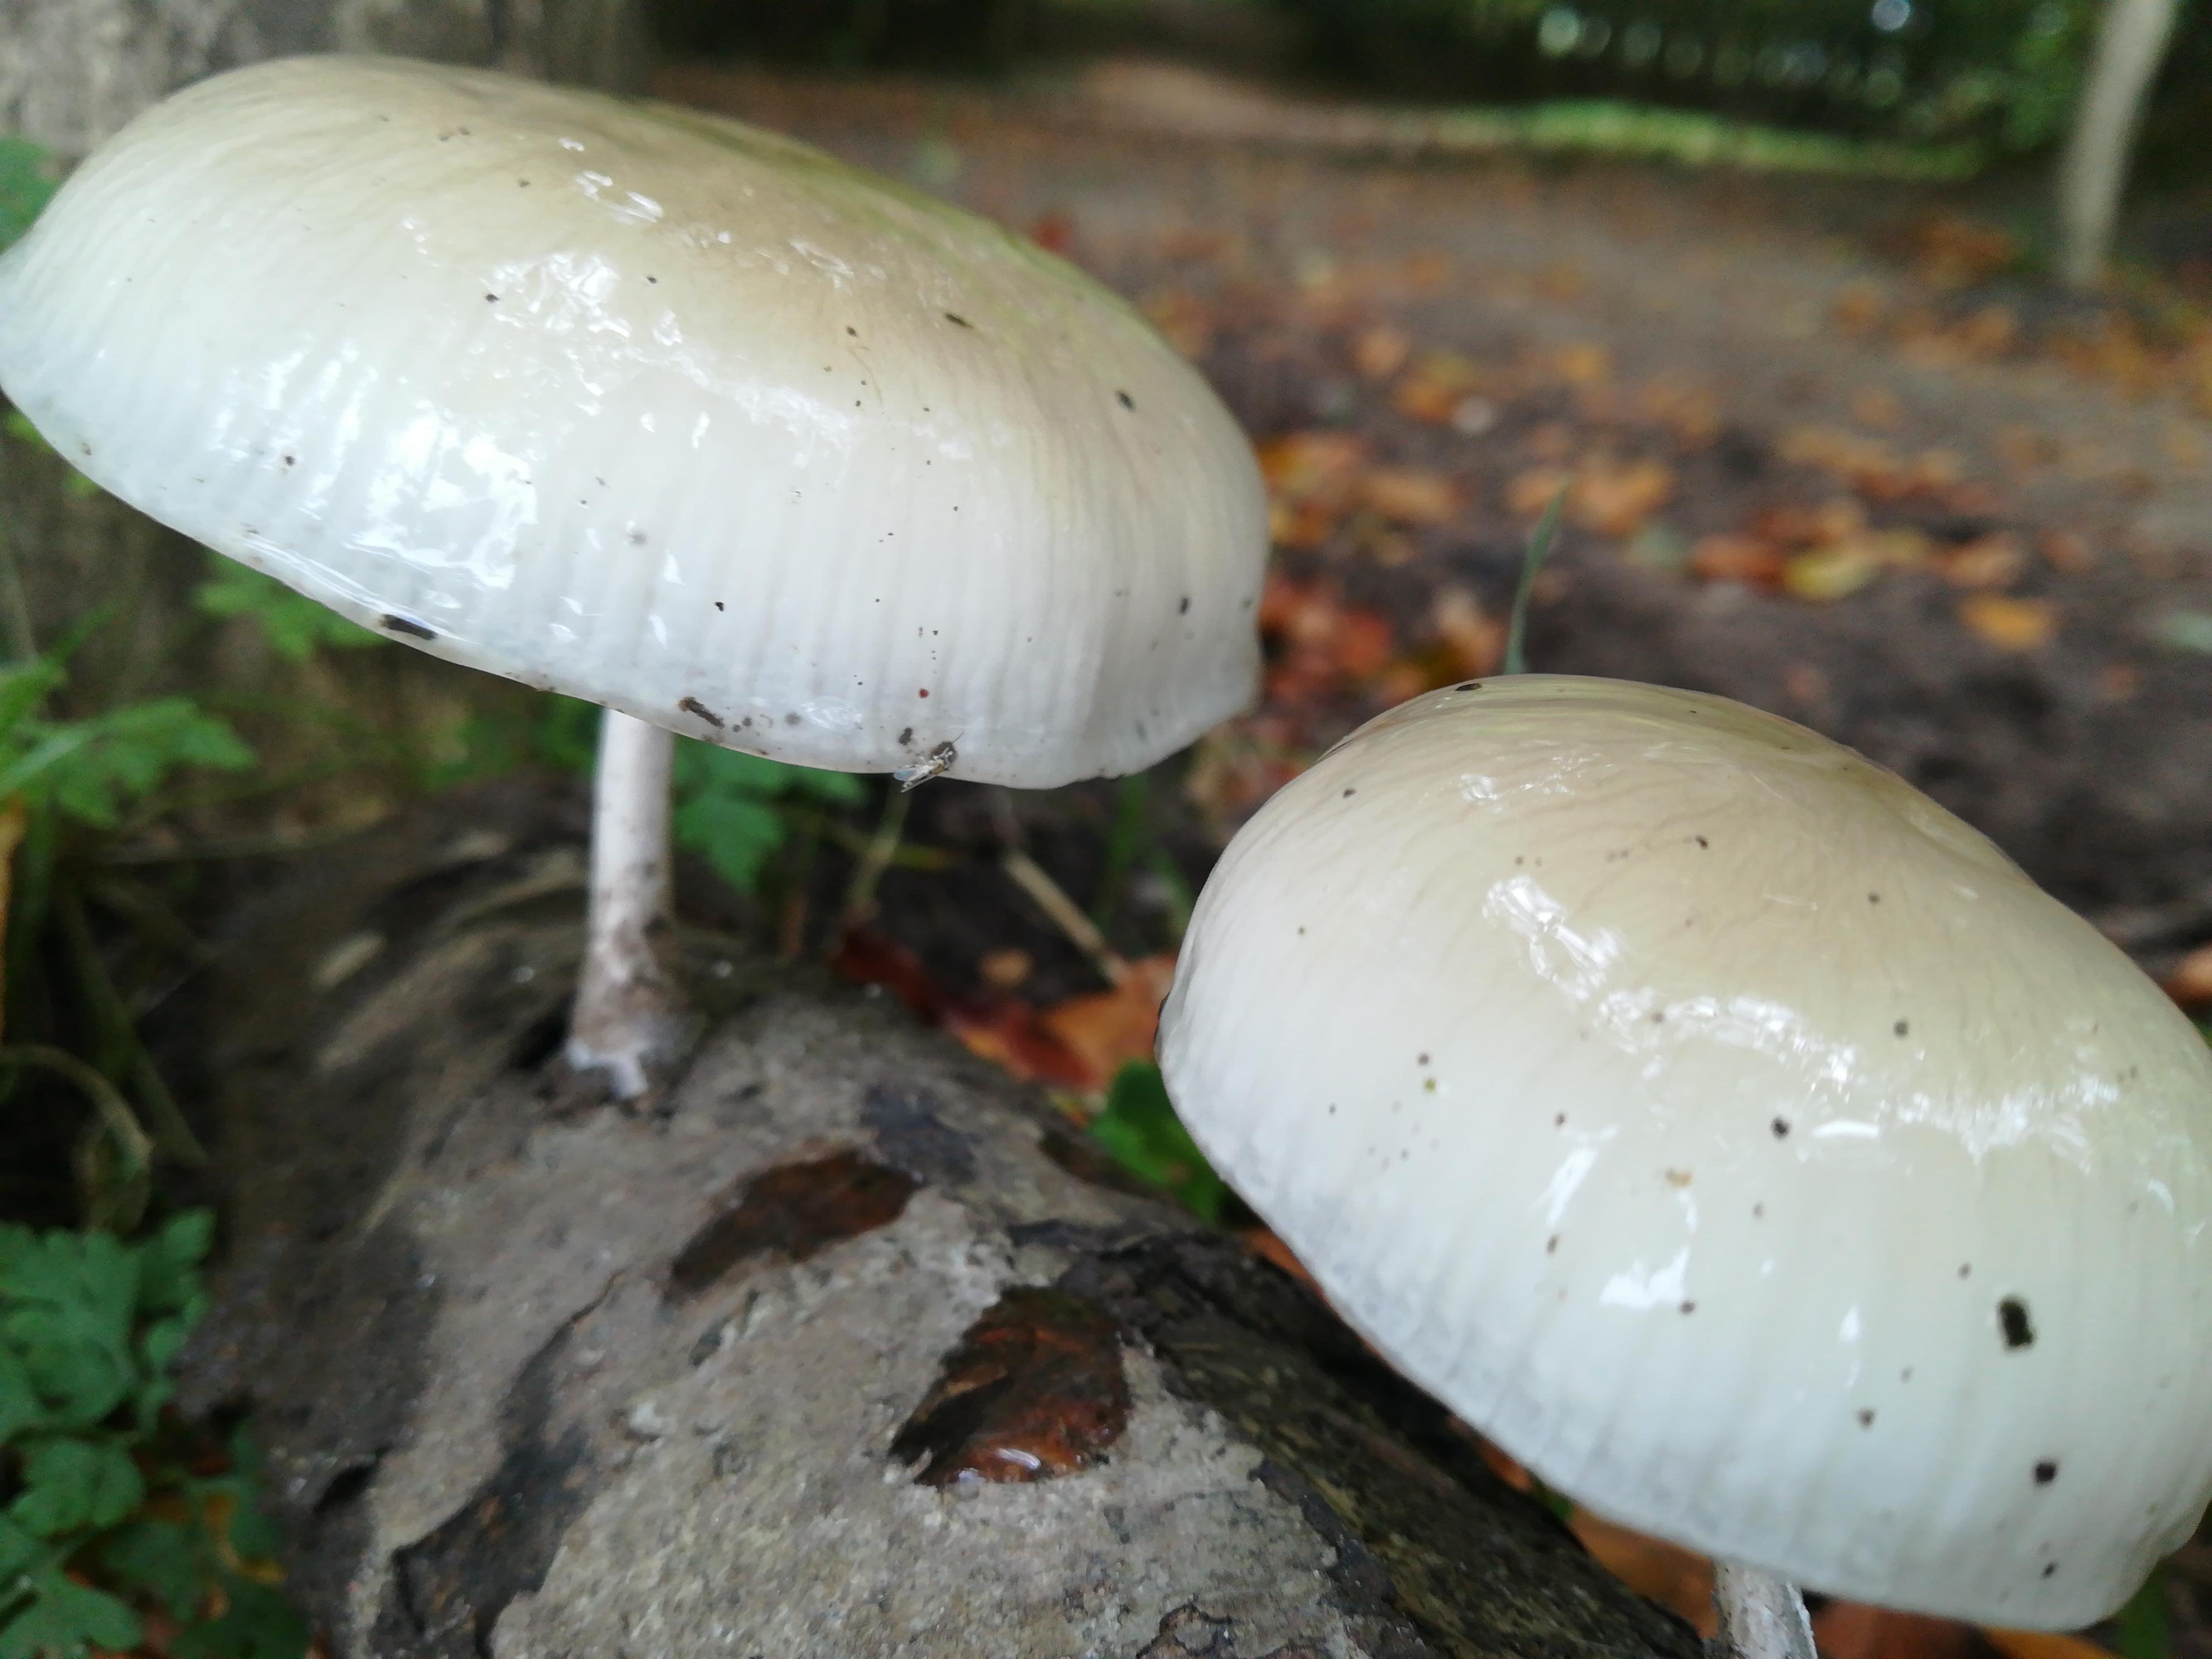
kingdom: Fungi
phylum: Basidiomycota
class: Agaricomycetes
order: Agaricales
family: Physalacriaceae
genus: Mucidula
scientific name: Mucidula mucida
